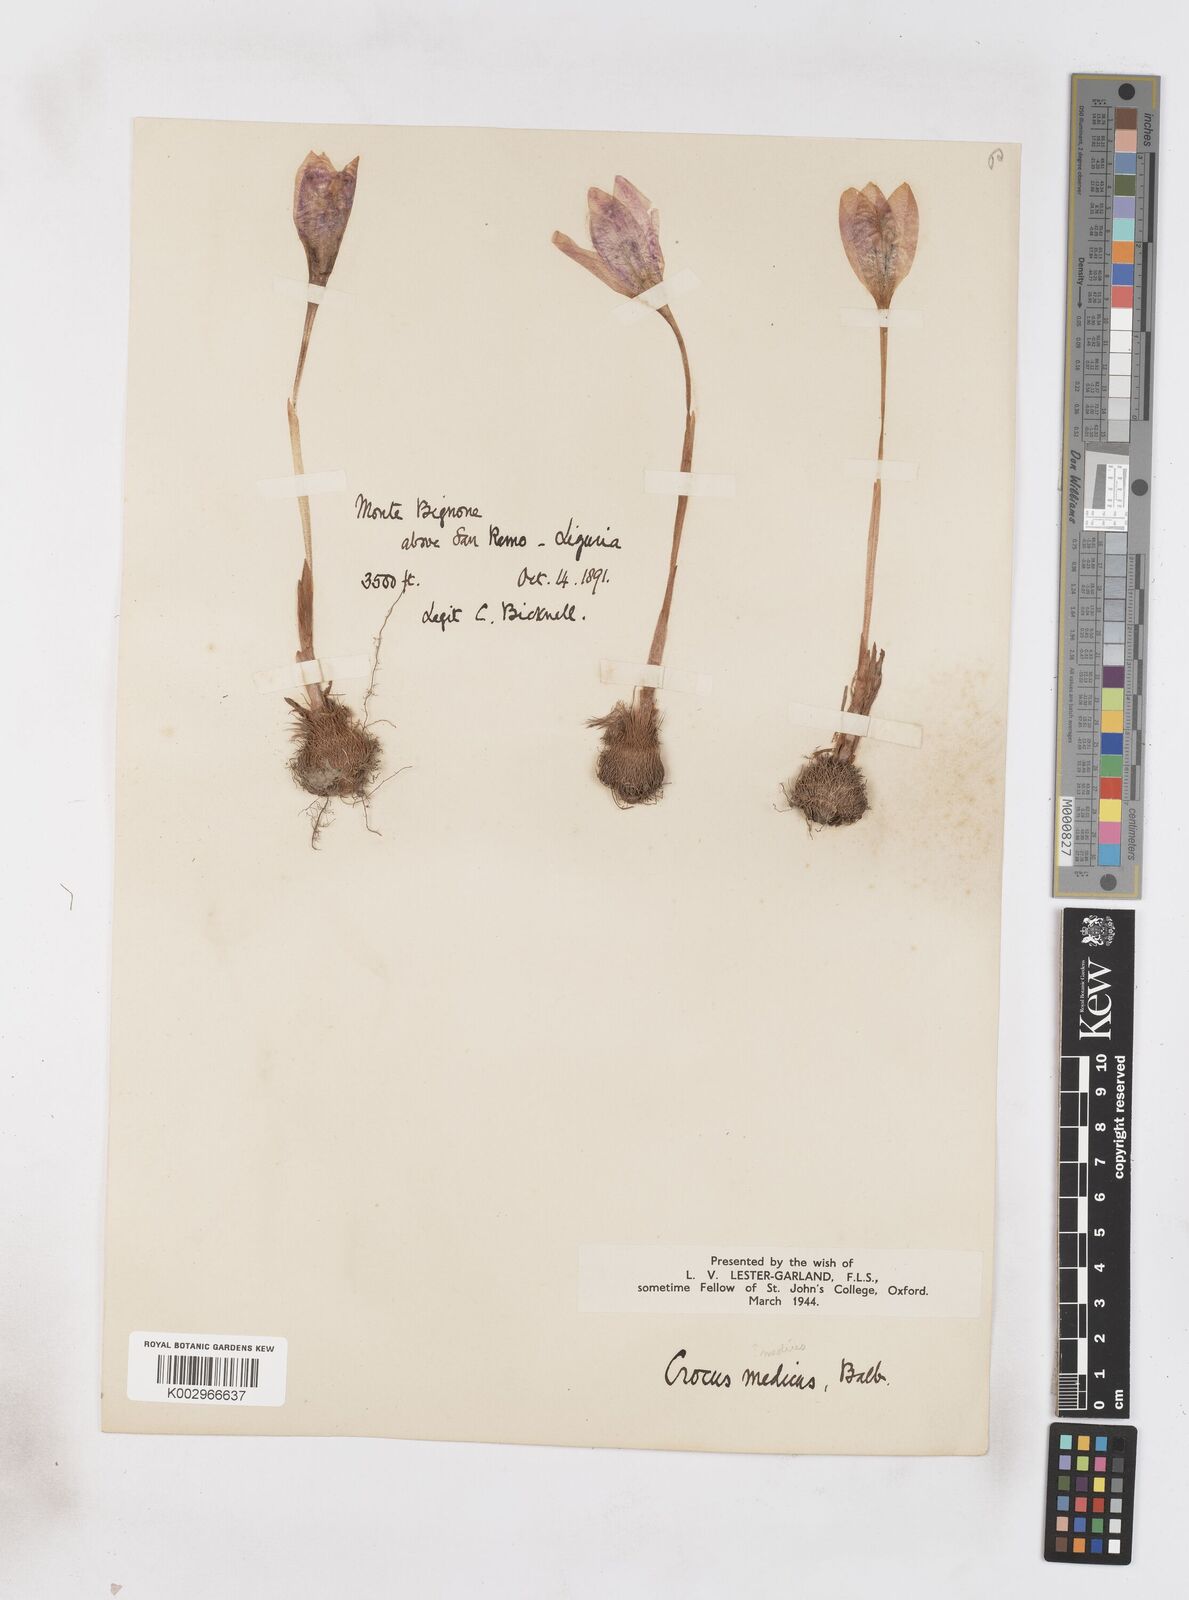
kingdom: Plantae
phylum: Tracheophyta
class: Liliopsida
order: Asparagales
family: Iridaceae
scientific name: Iridaceae
